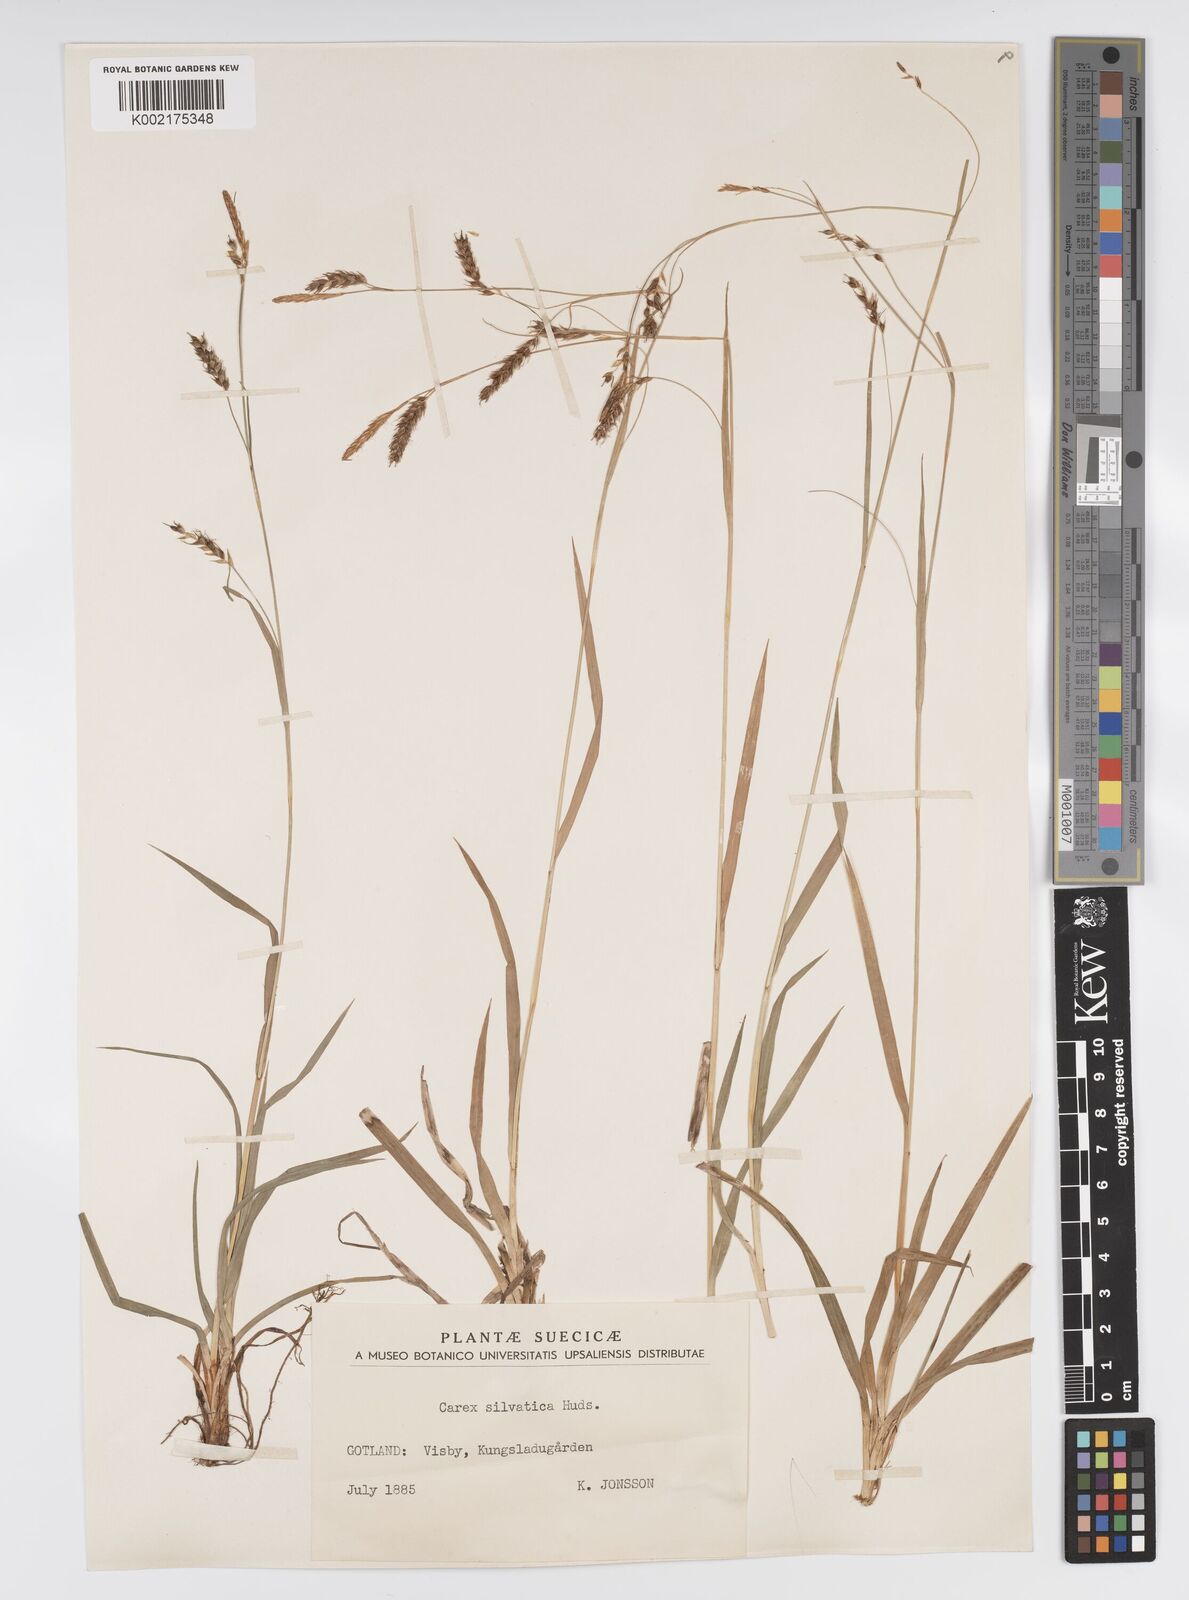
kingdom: Plantae
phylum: Tracheophyta
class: Liliopsida
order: Poales
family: Cyperaceae
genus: Carex
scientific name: Carex sylvatica
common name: Wood-sedge
